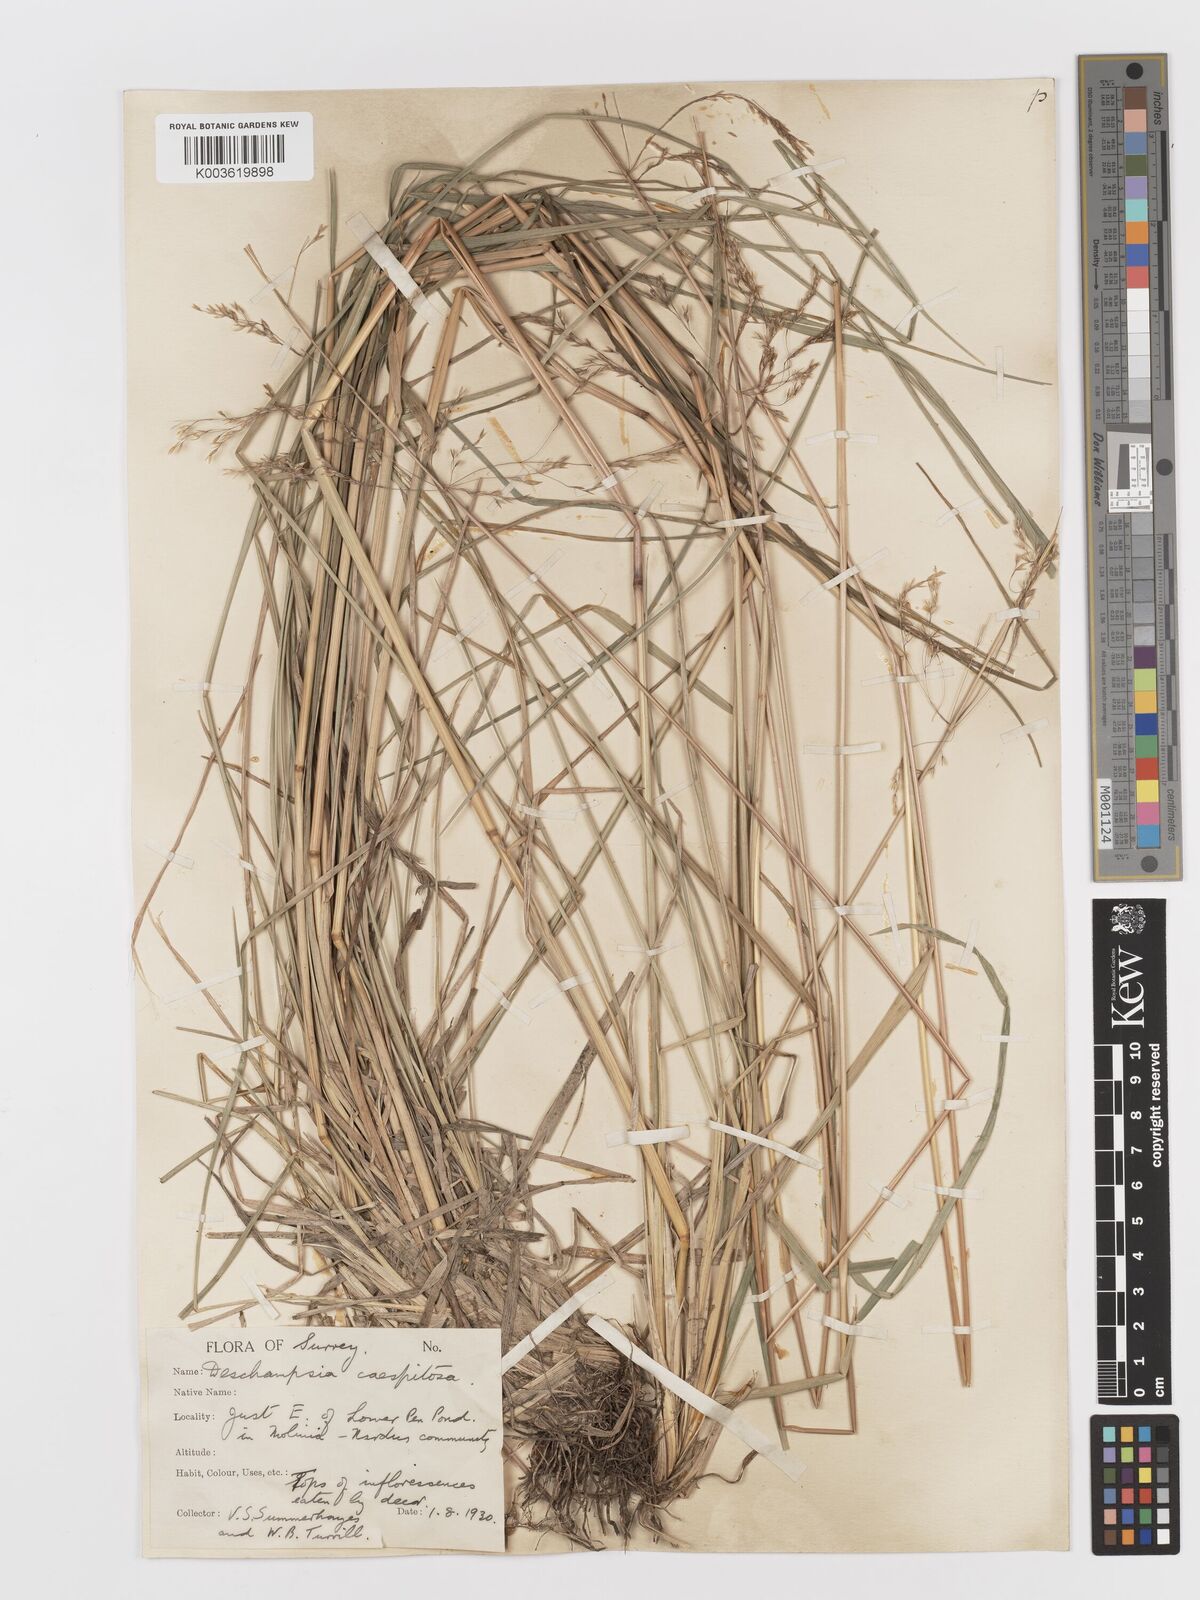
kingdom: Plantae
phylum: Tracheophyta
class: Liliopsida
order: Poales
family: Poaceae
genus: Deschampsia
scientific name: Deschampsia
